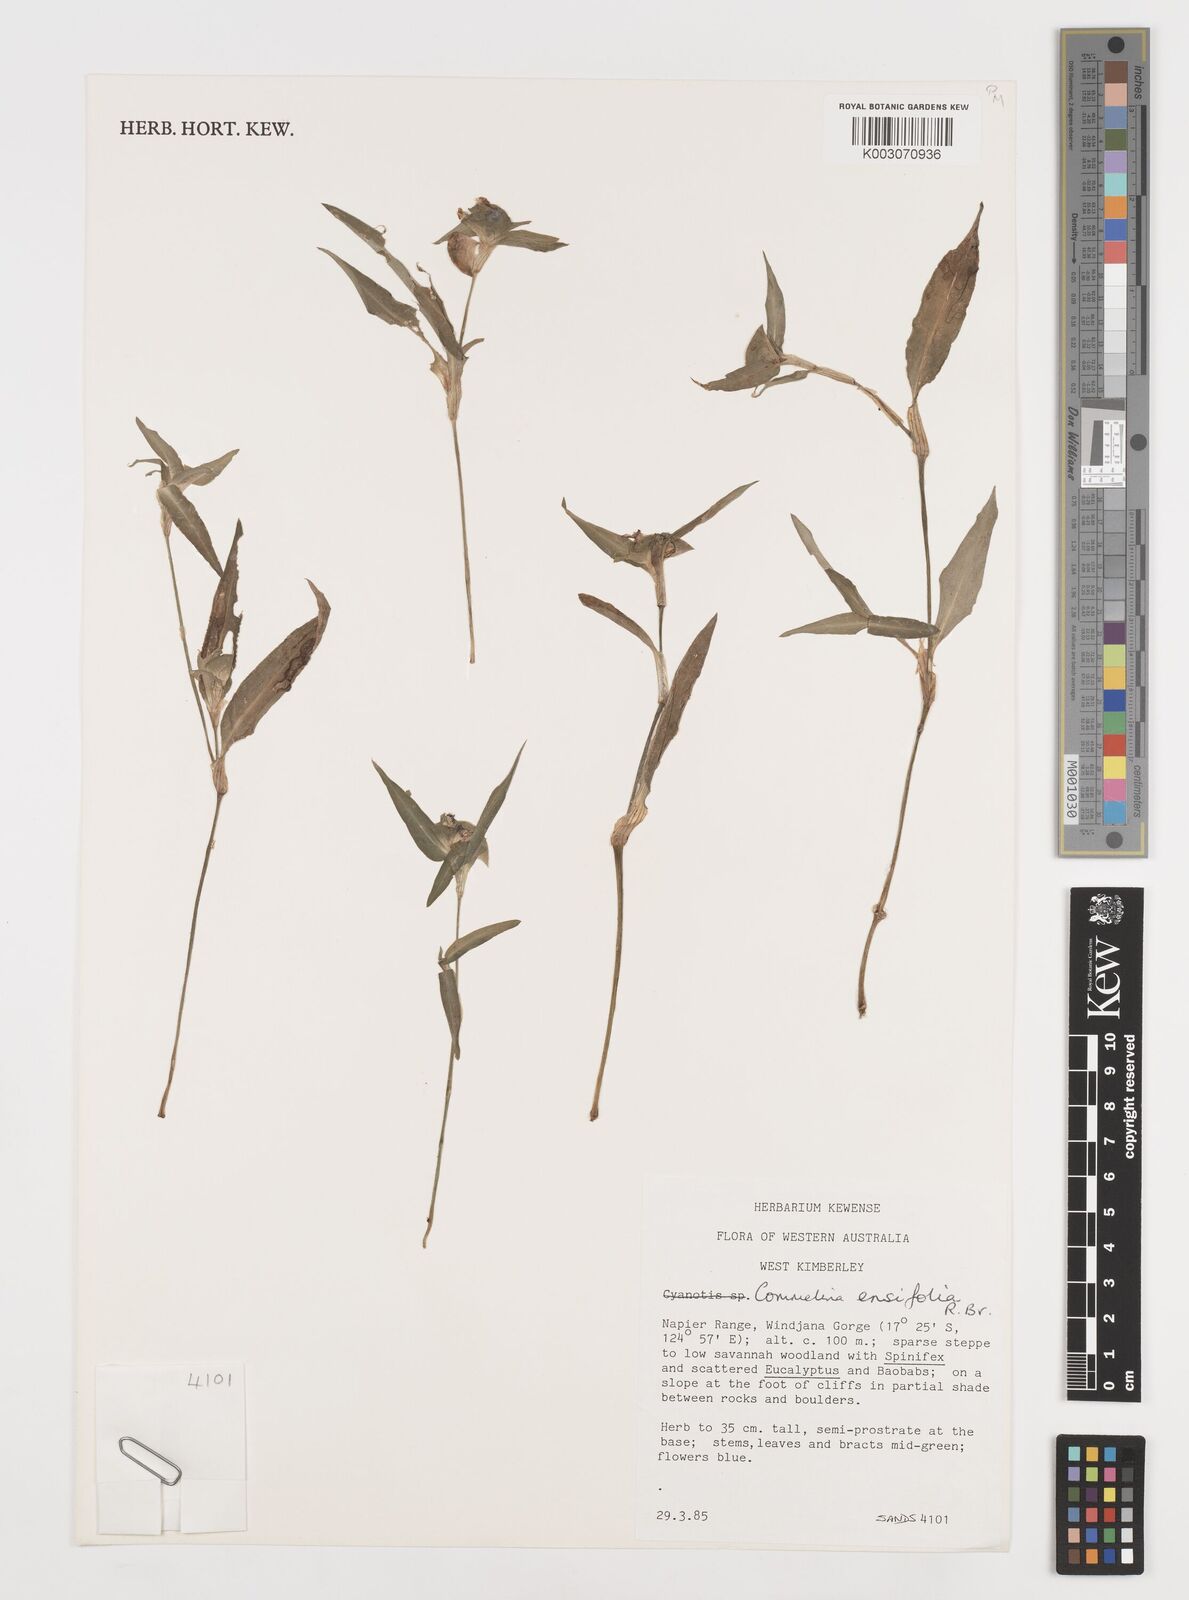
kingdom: Plantae
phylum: Tracheophyta
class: Liliopsida
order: Commelinales
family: Commelinaceae
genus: Commelina
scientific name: Commelina ensifolia
